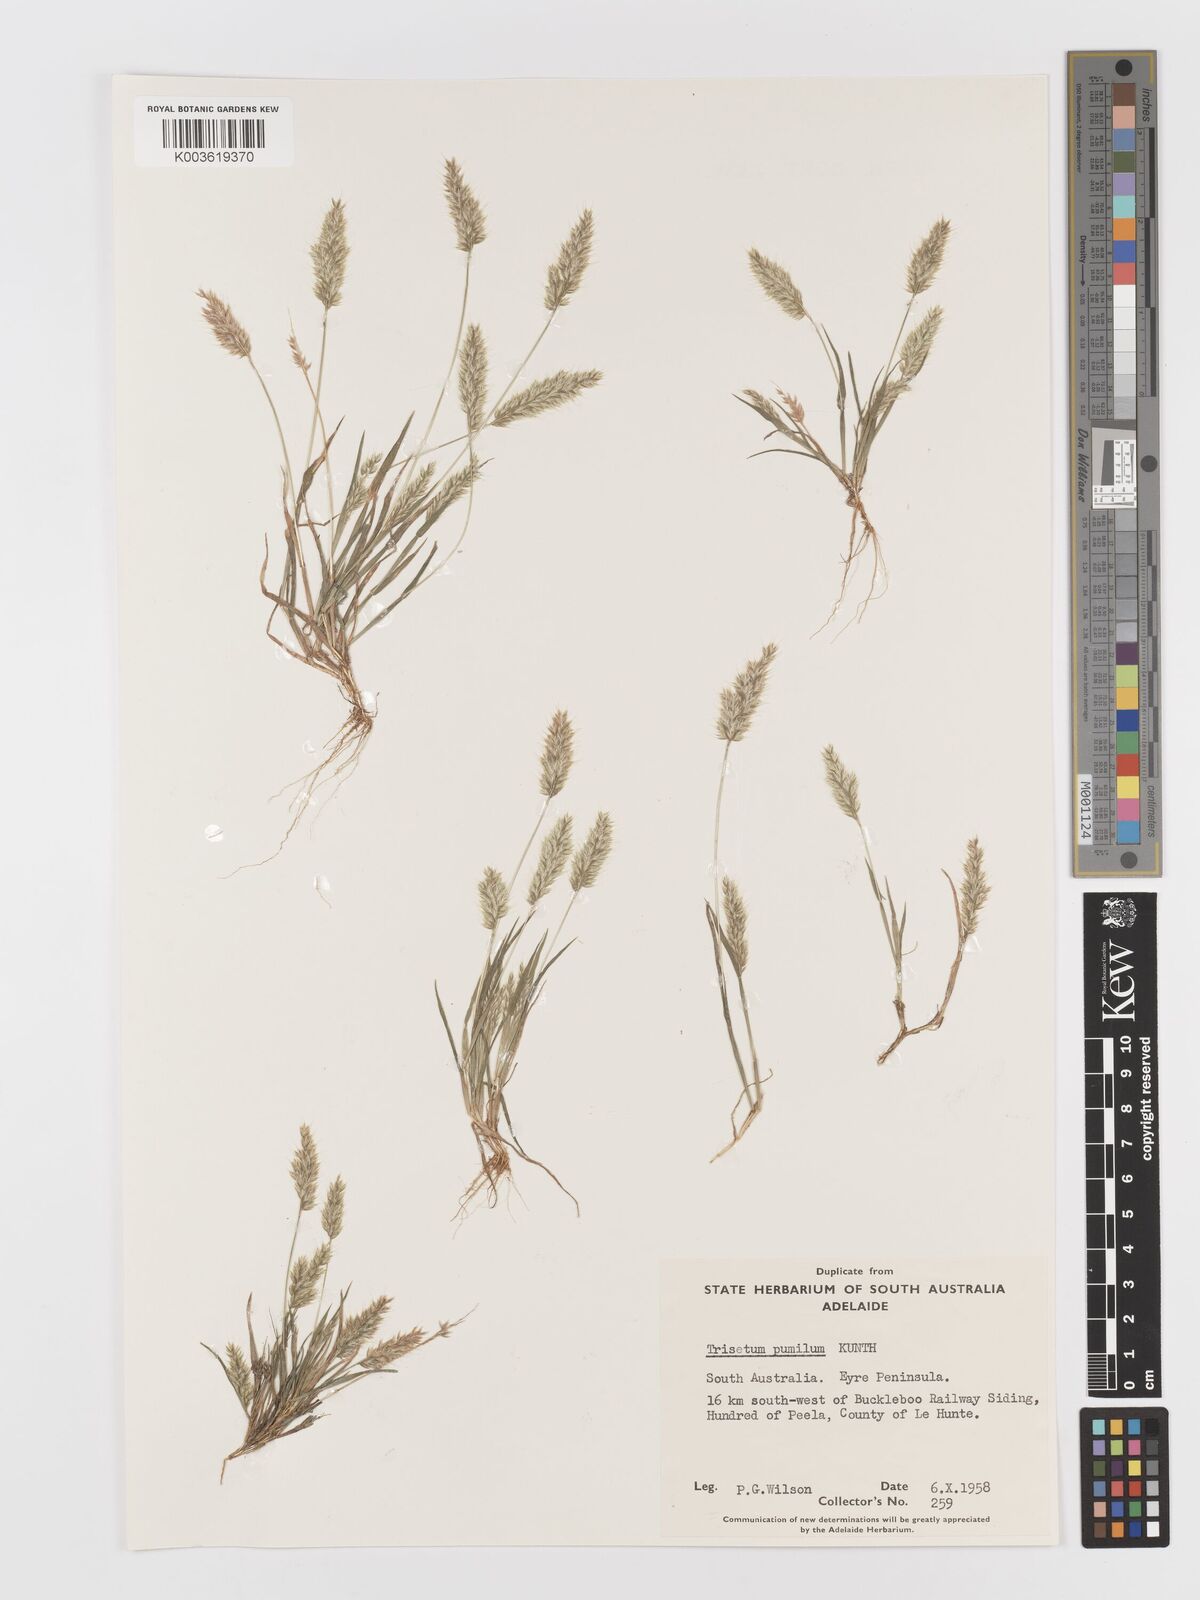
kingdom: Plantae
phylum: Tracheophyta
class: Liliopsida
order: Poales
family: Poaceae
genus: Rostraria
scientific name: Rostraria pumila
